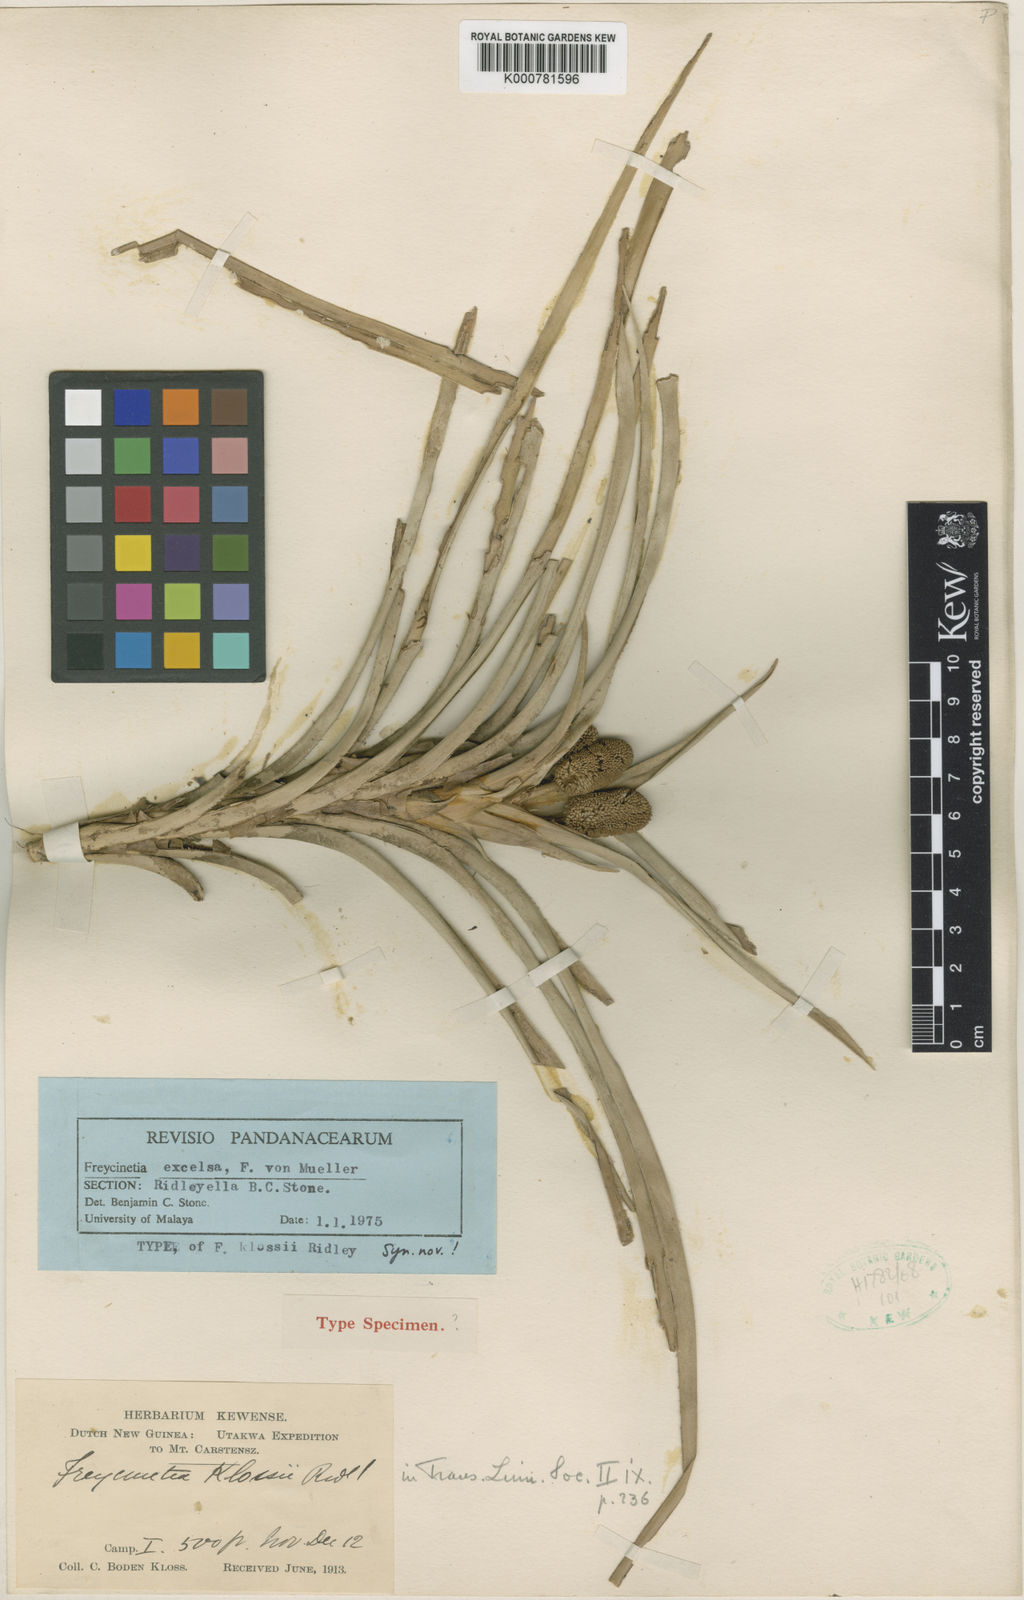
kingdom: Plantae
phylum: Tracheophyta
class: Liliopsida
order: Pandanales
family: Pandanaceae
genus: Freycinetia
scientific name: Freycinetia klossii
